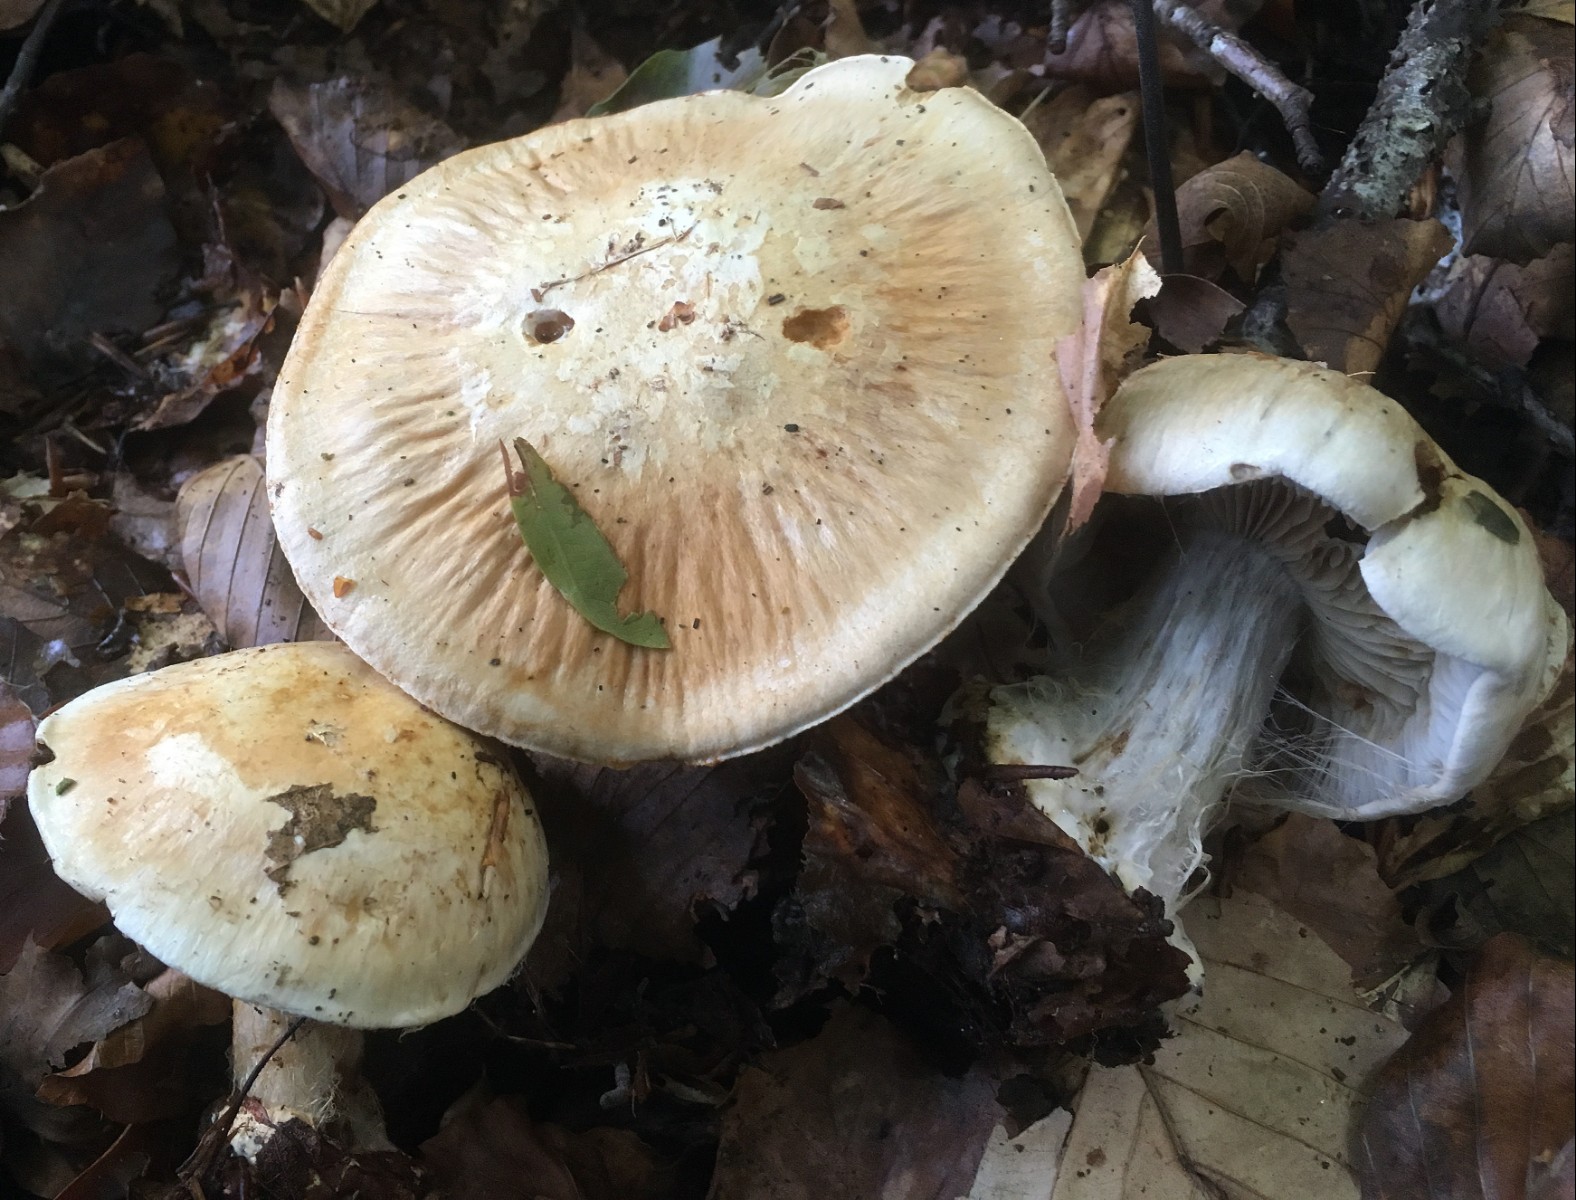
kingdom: Fungi
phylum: Basidiomycota
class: Agaricomycetes
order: Agaricales
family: Cortinariaceae
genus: Cortinarius
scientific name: Cortinarius foetens
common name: stribet slørhat
